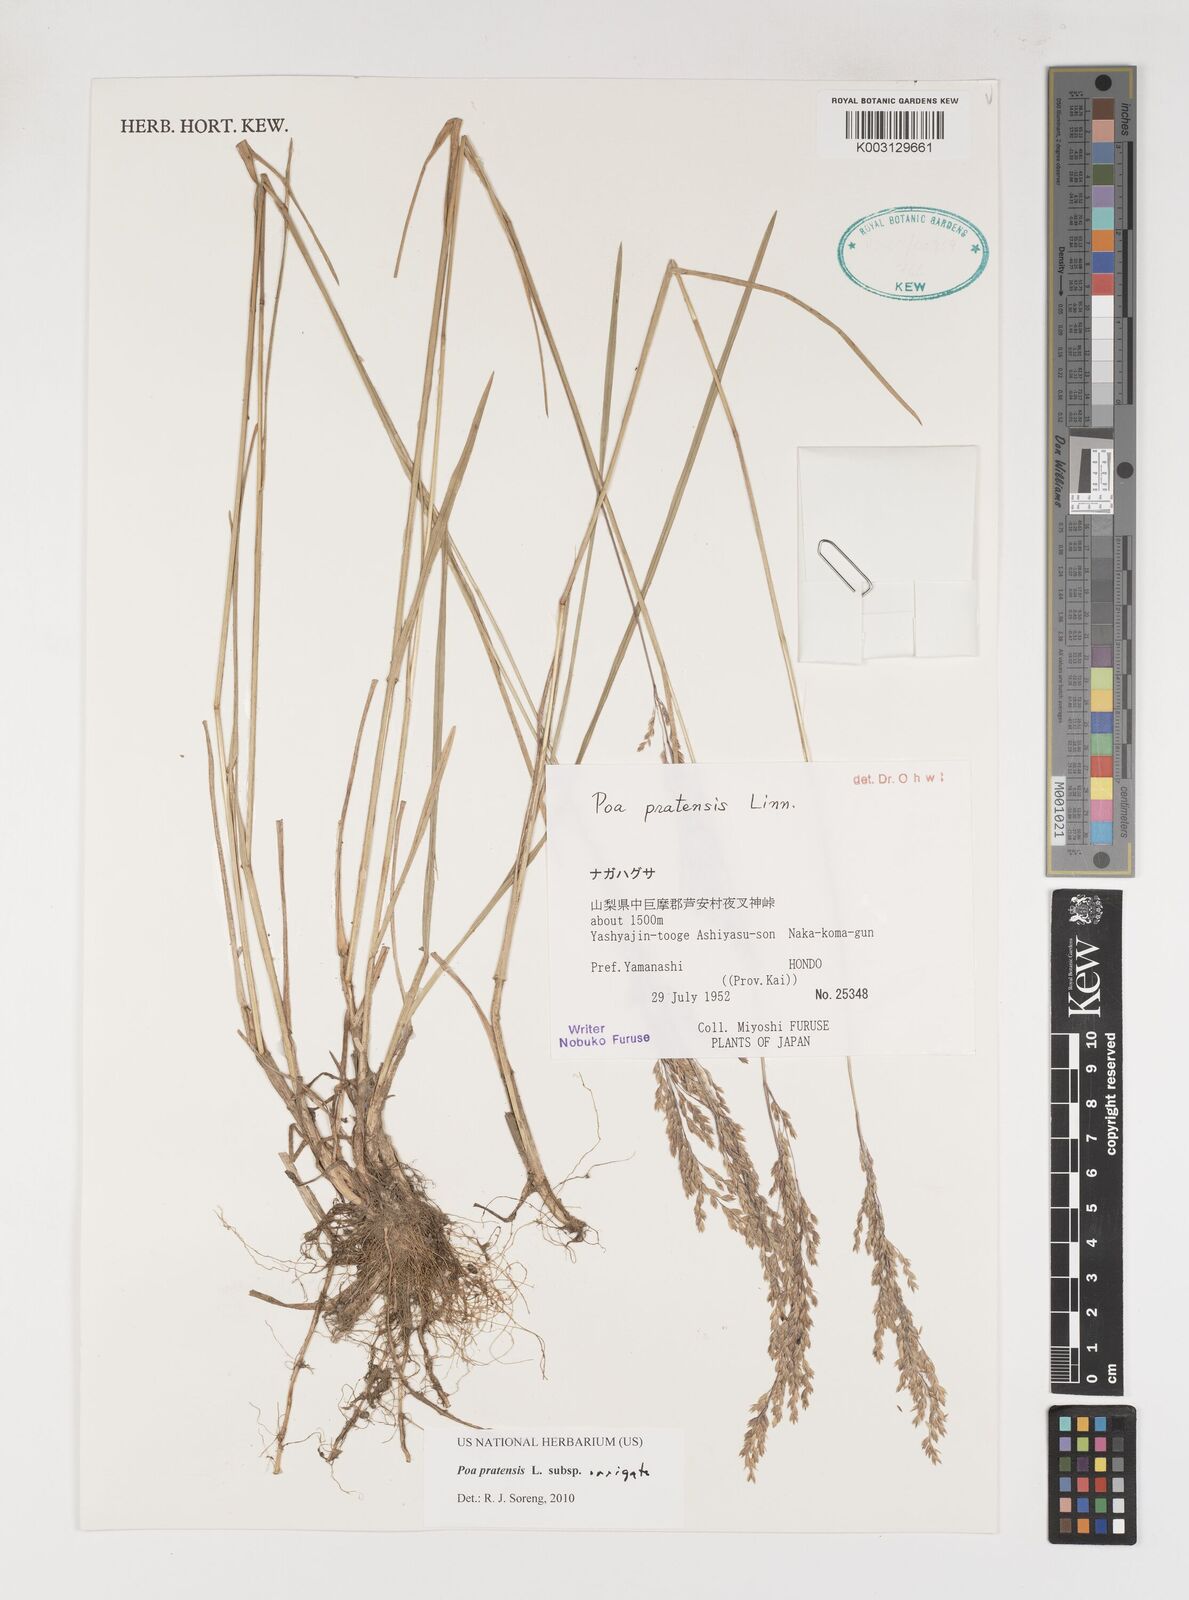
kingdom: Plantae
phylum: Tracheophyta
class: Liliopsida
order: Poales
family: Poaceae
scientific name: Poaceae
